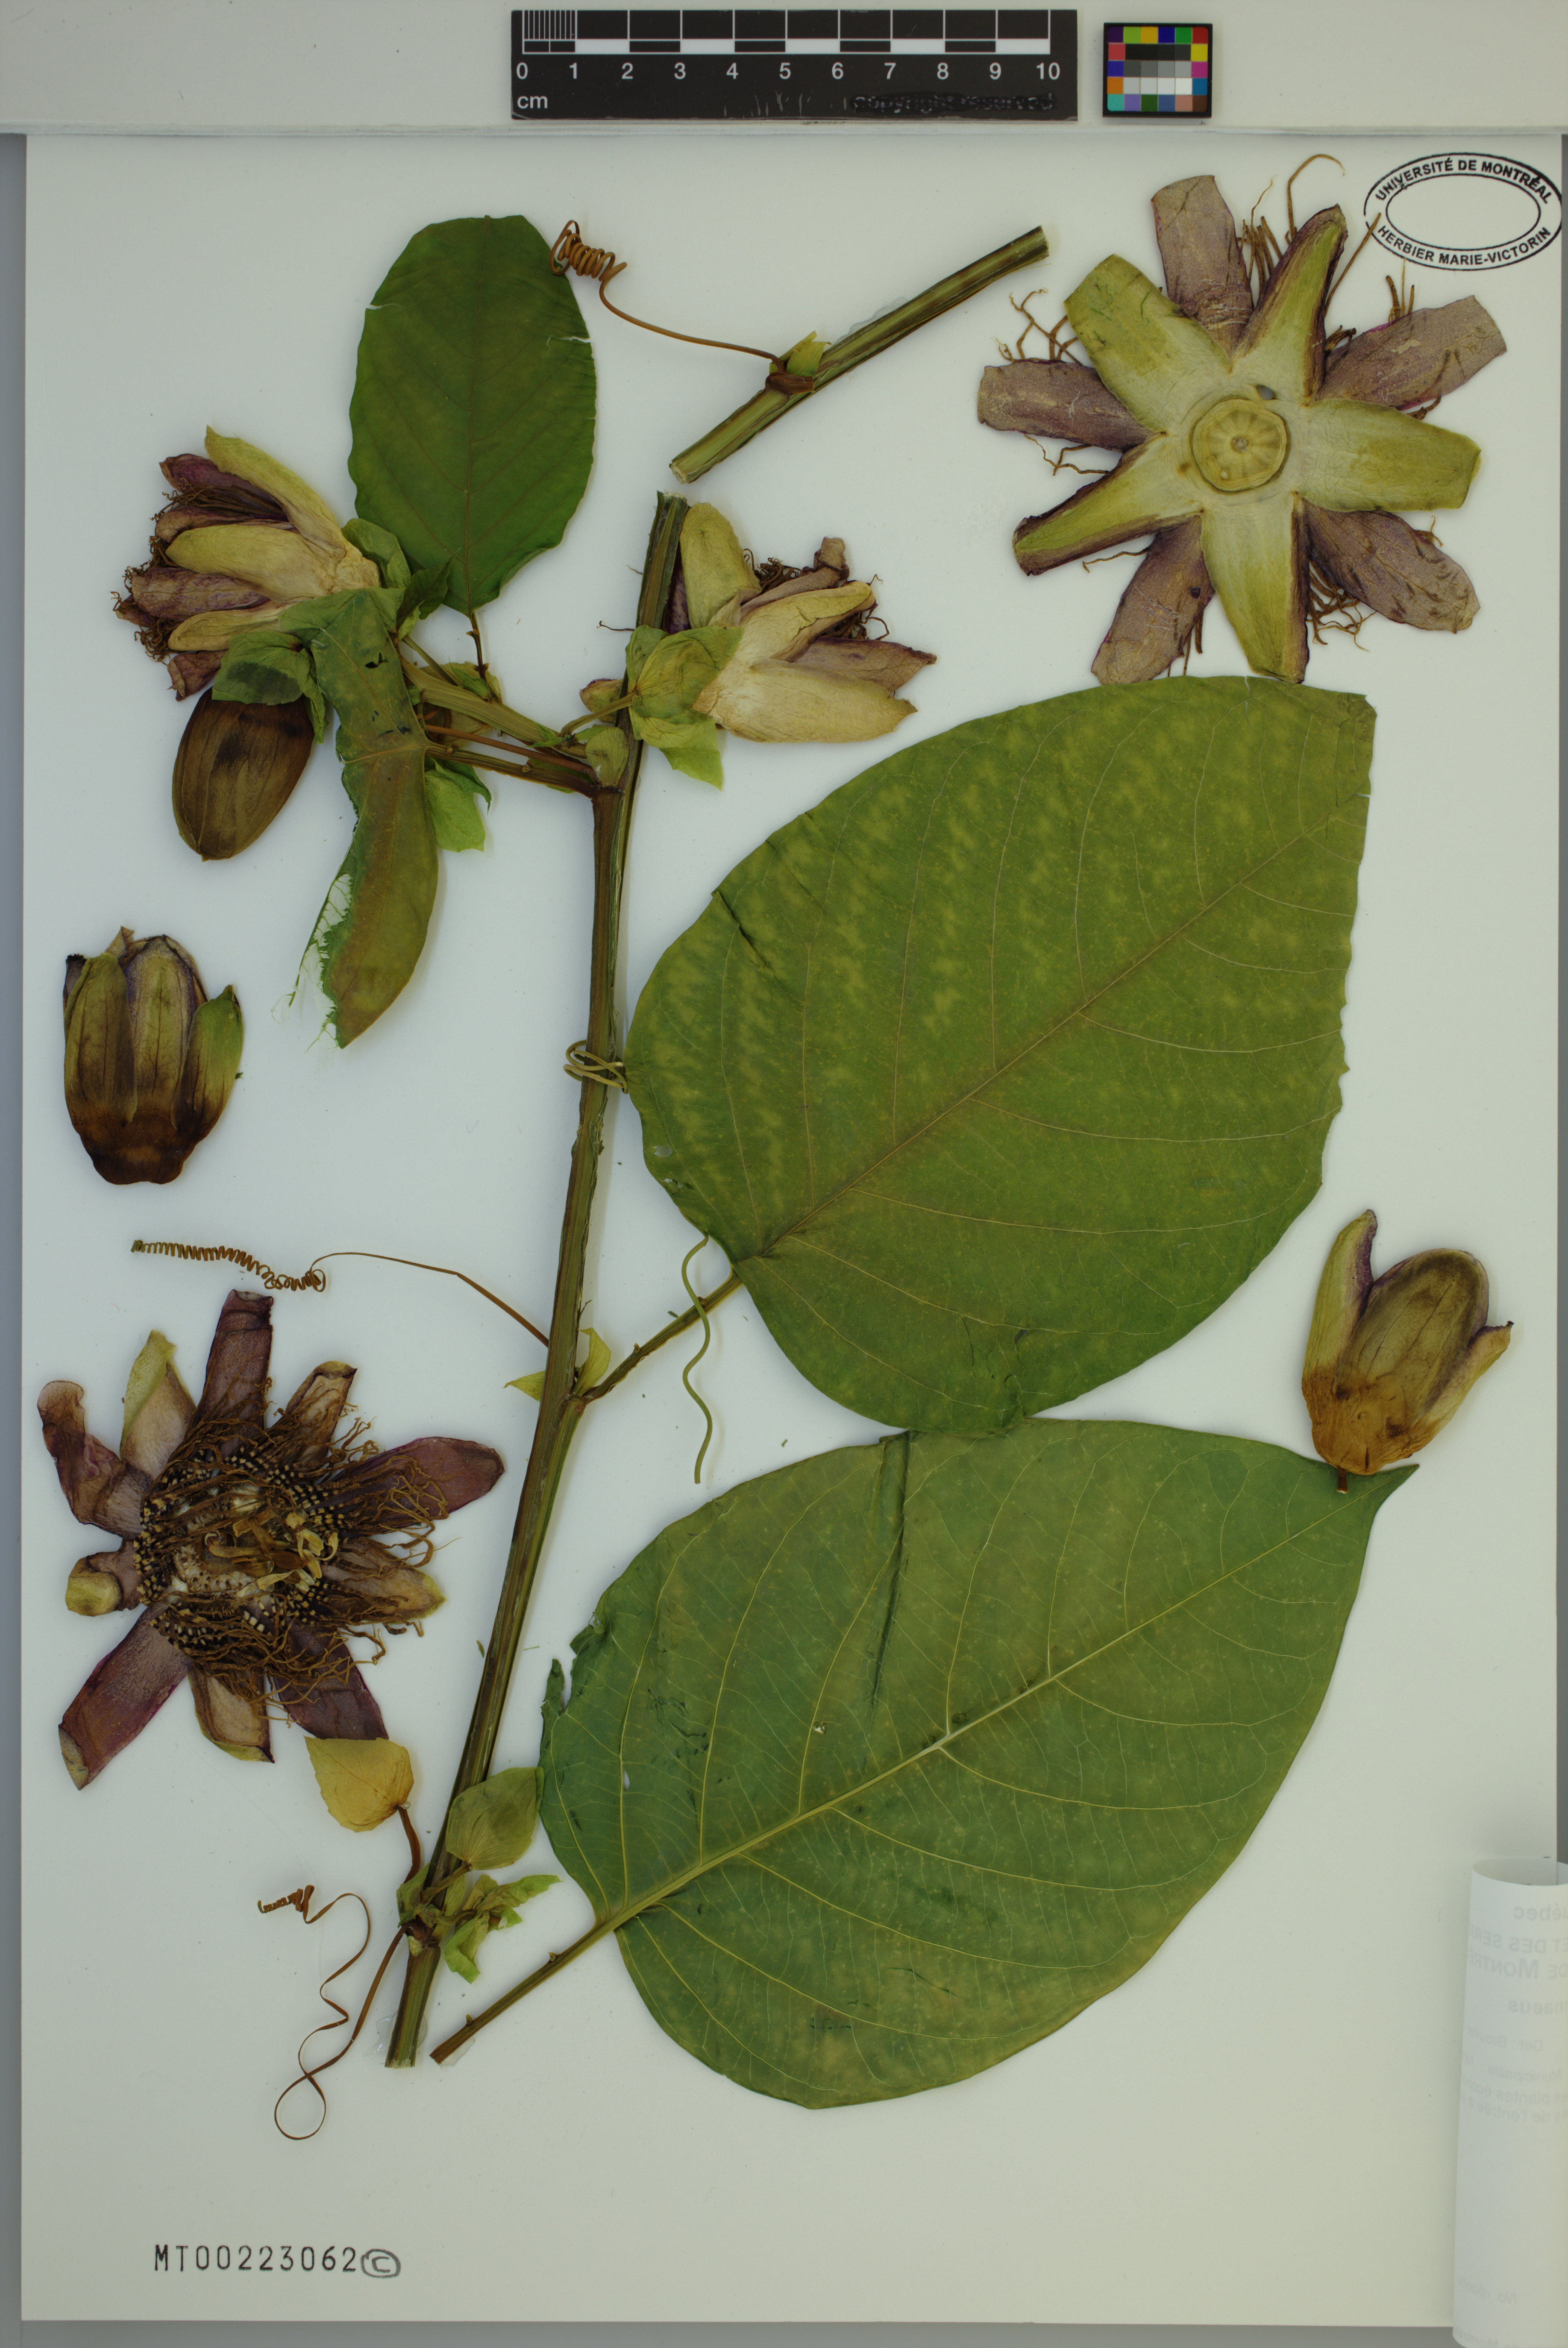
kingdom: Plantae
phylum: Tracheophyta
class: Magnoliopsida
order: Malpighiales
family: Passifloraceae
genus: Passiflora
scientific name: Passiflora quadrangularis
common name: Giant granadilla
